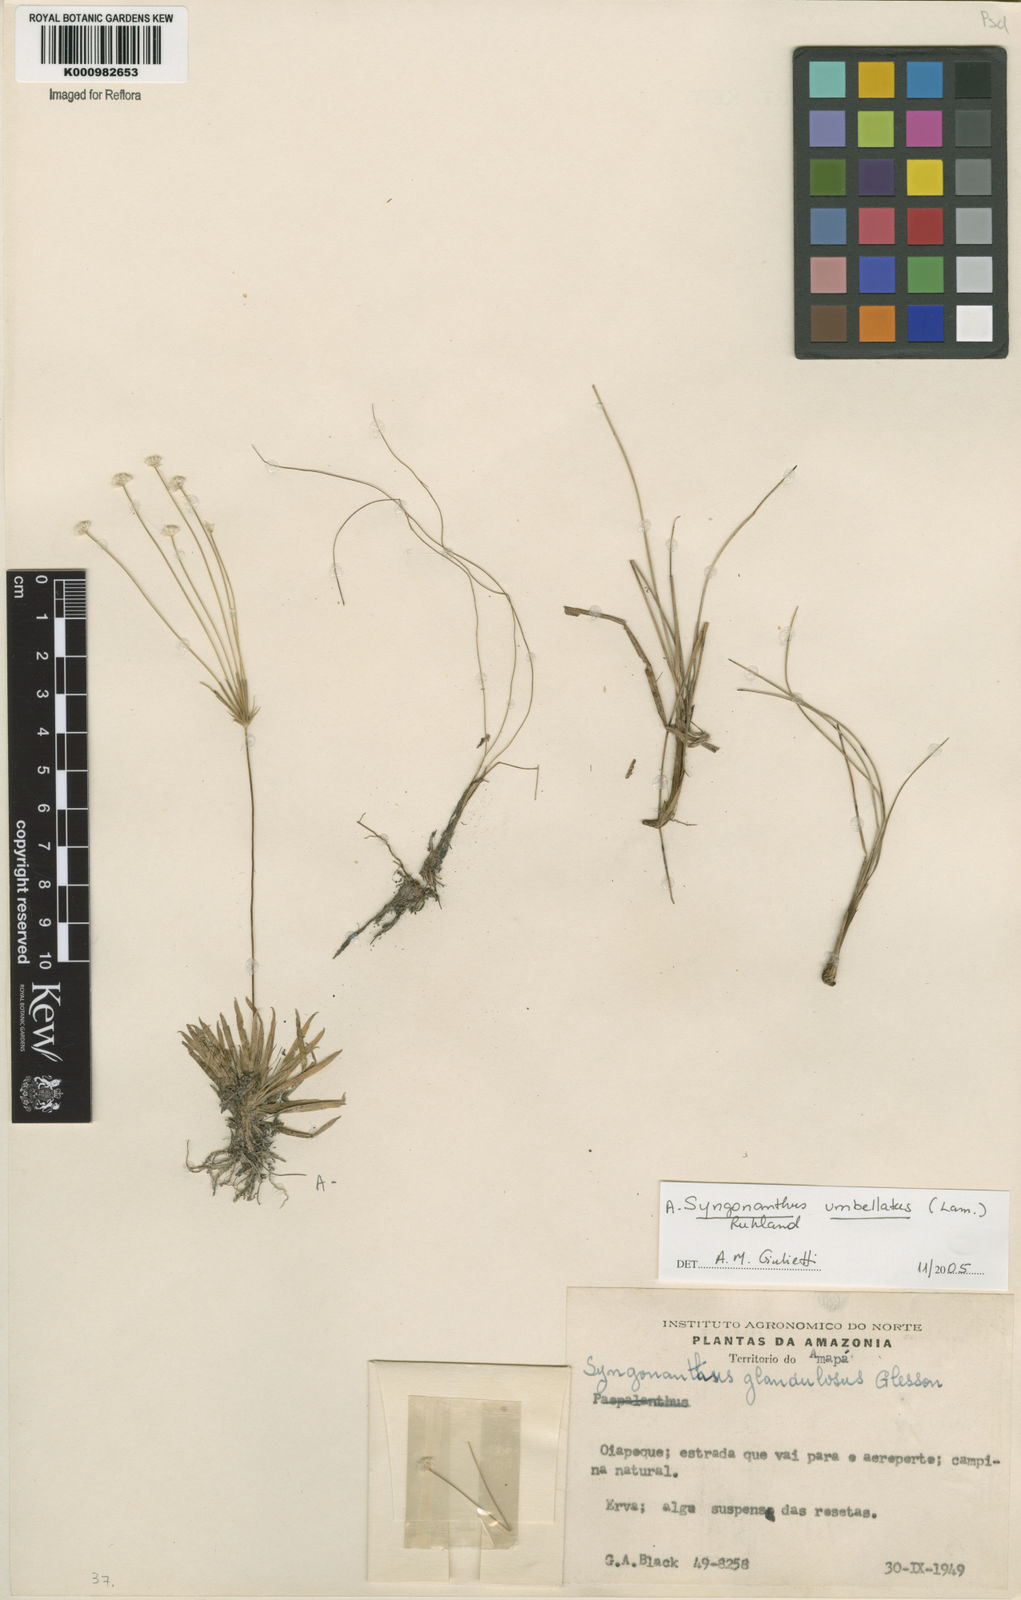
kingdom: Plantae
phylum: Tracheophyta
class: Liliopsida
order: Poales
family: Eriocaulaceae
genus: Syngonanthus
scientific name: Syngonanthus umbellatus
